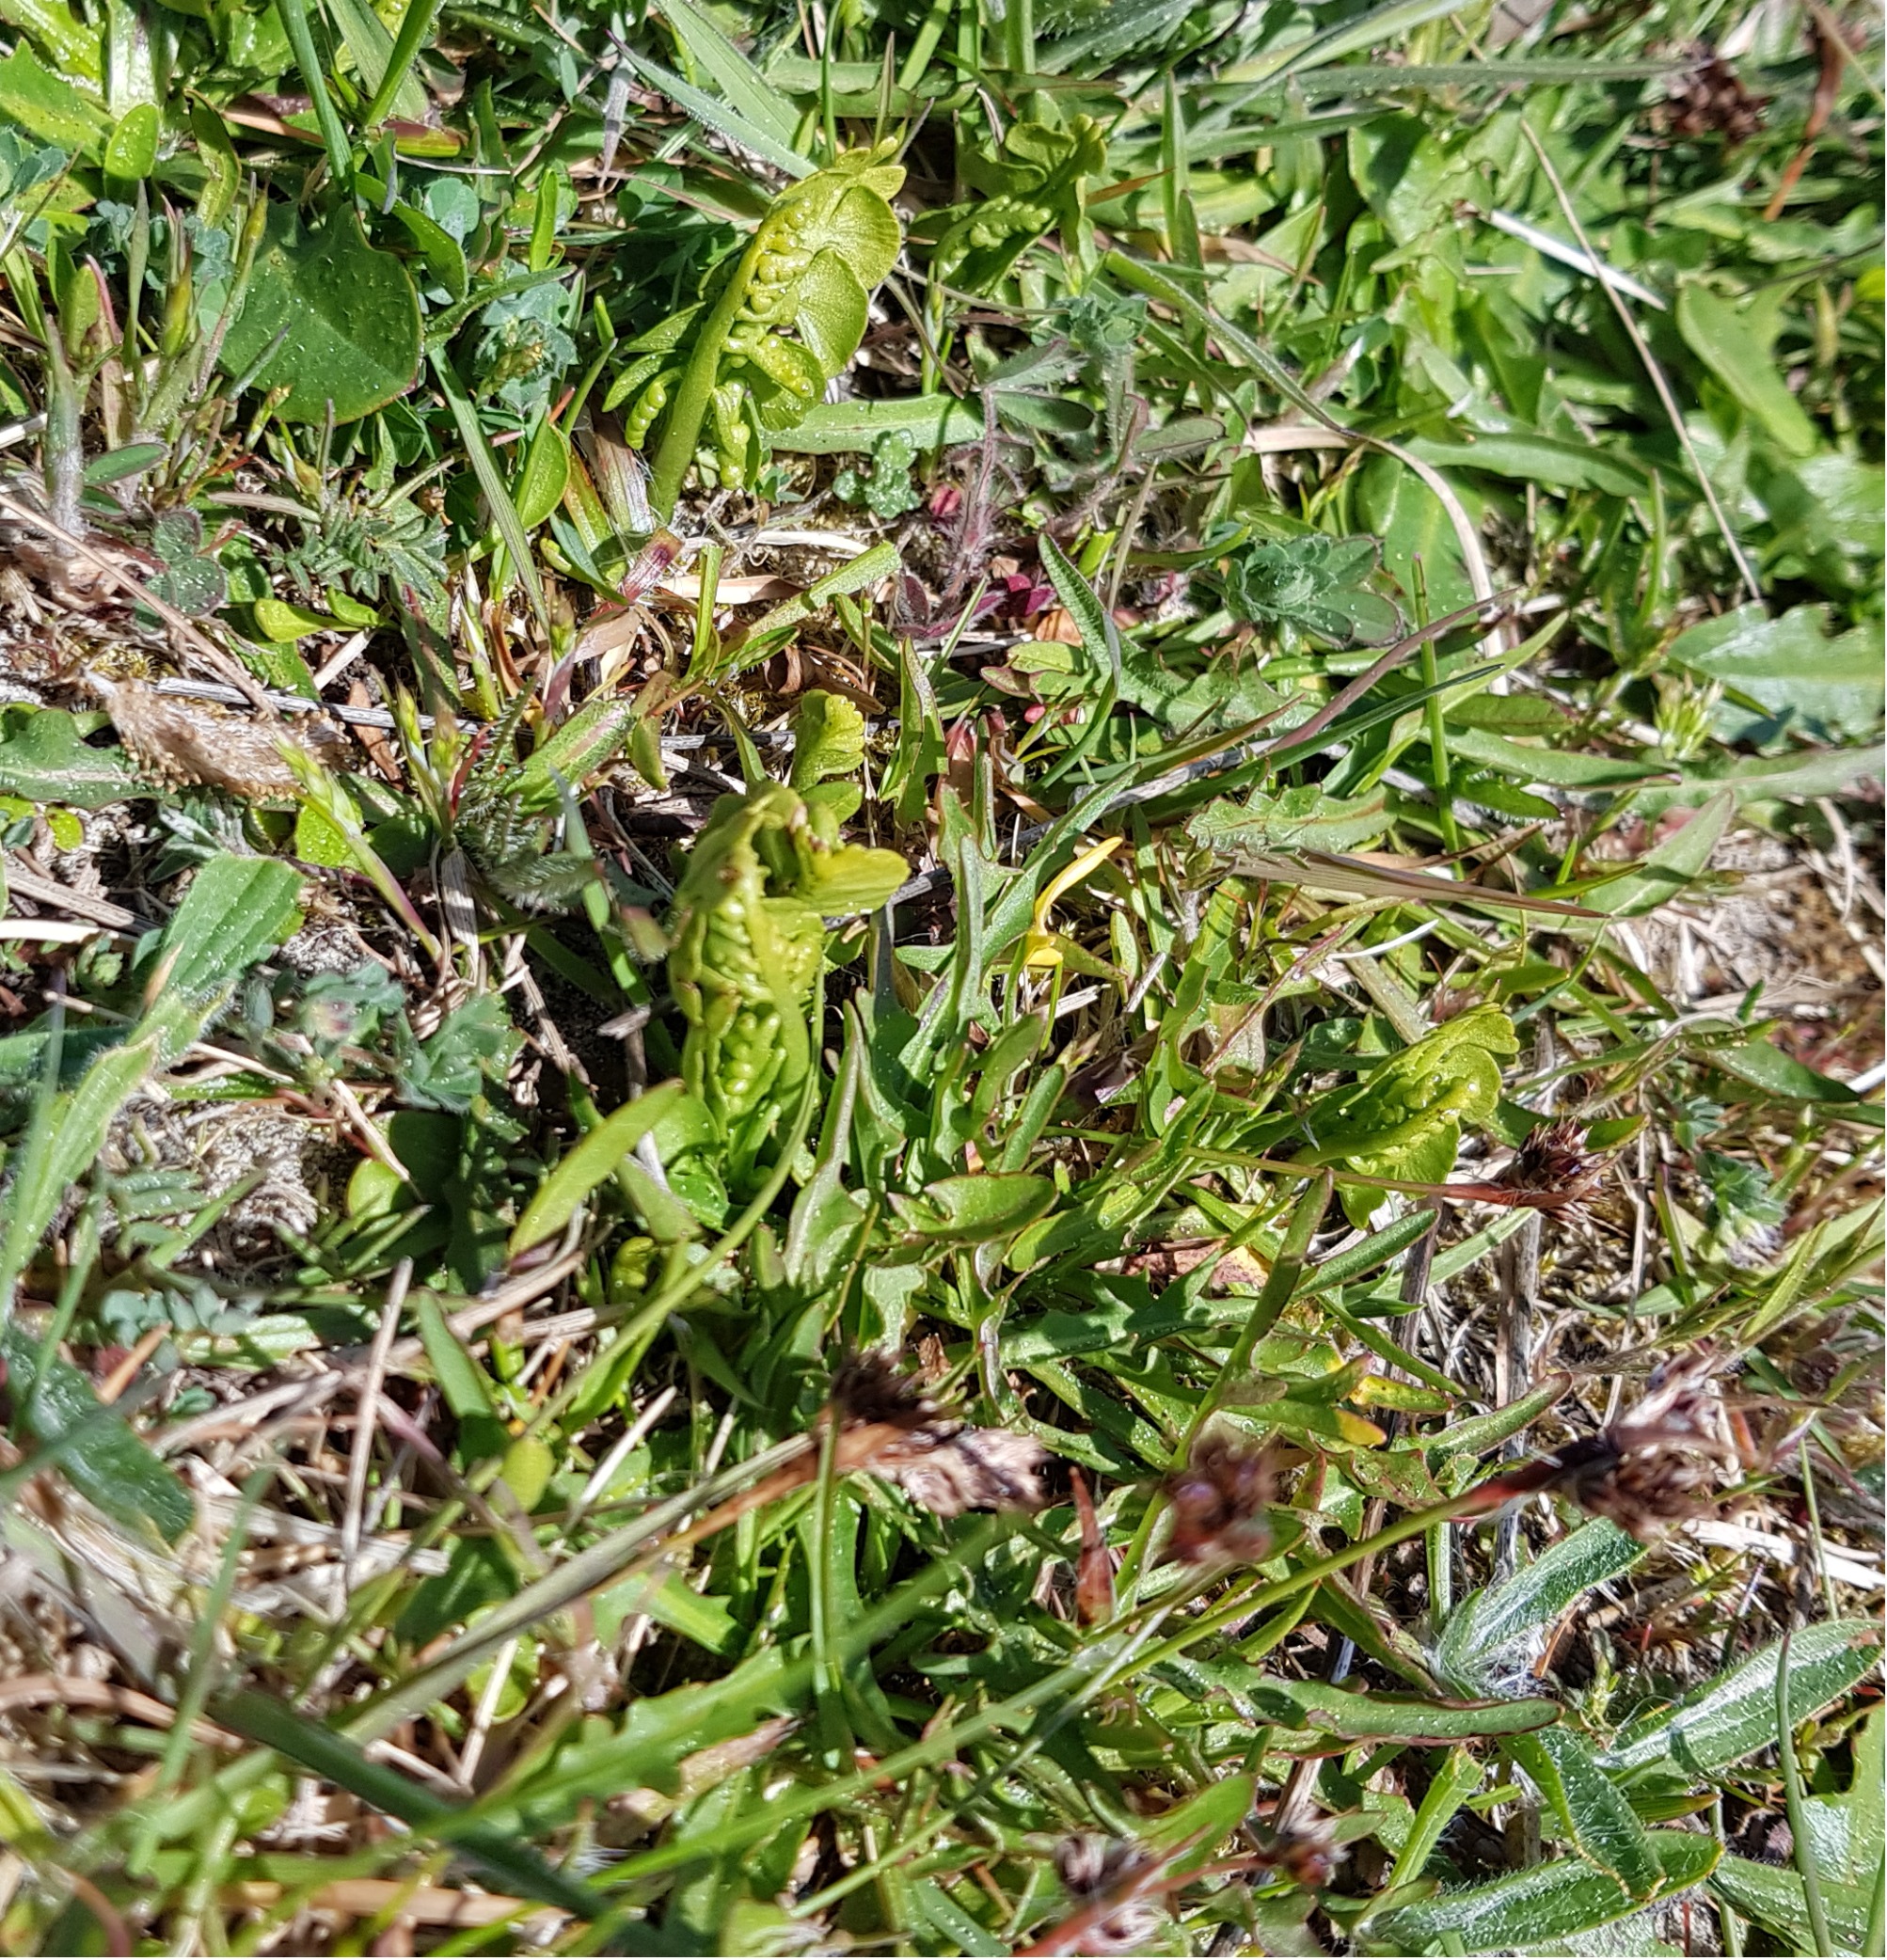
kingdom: Plantae
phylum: Tracheophyta
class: Polypodiopsida
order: Ophioglossales
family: Ophioglossaceae
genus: Botrychium
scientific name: Botrychium lunaria
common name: Almindelig månerude
